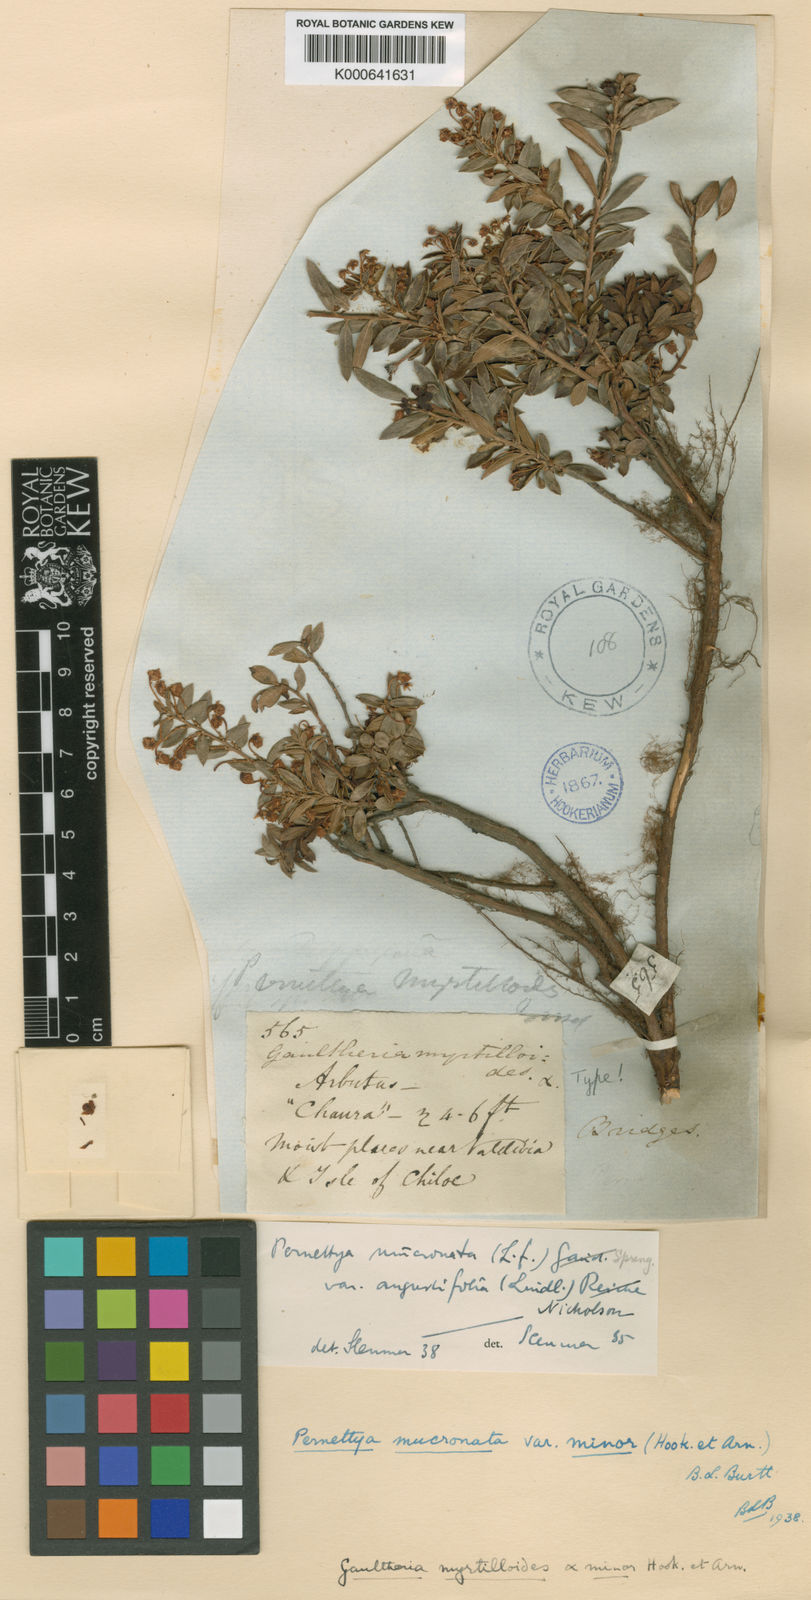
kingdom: Plantae
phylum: Tracheophyta
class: Magnoliopsida
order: Ericales
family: Ericaceae
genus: Gaultheria
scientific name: Gaultheria
